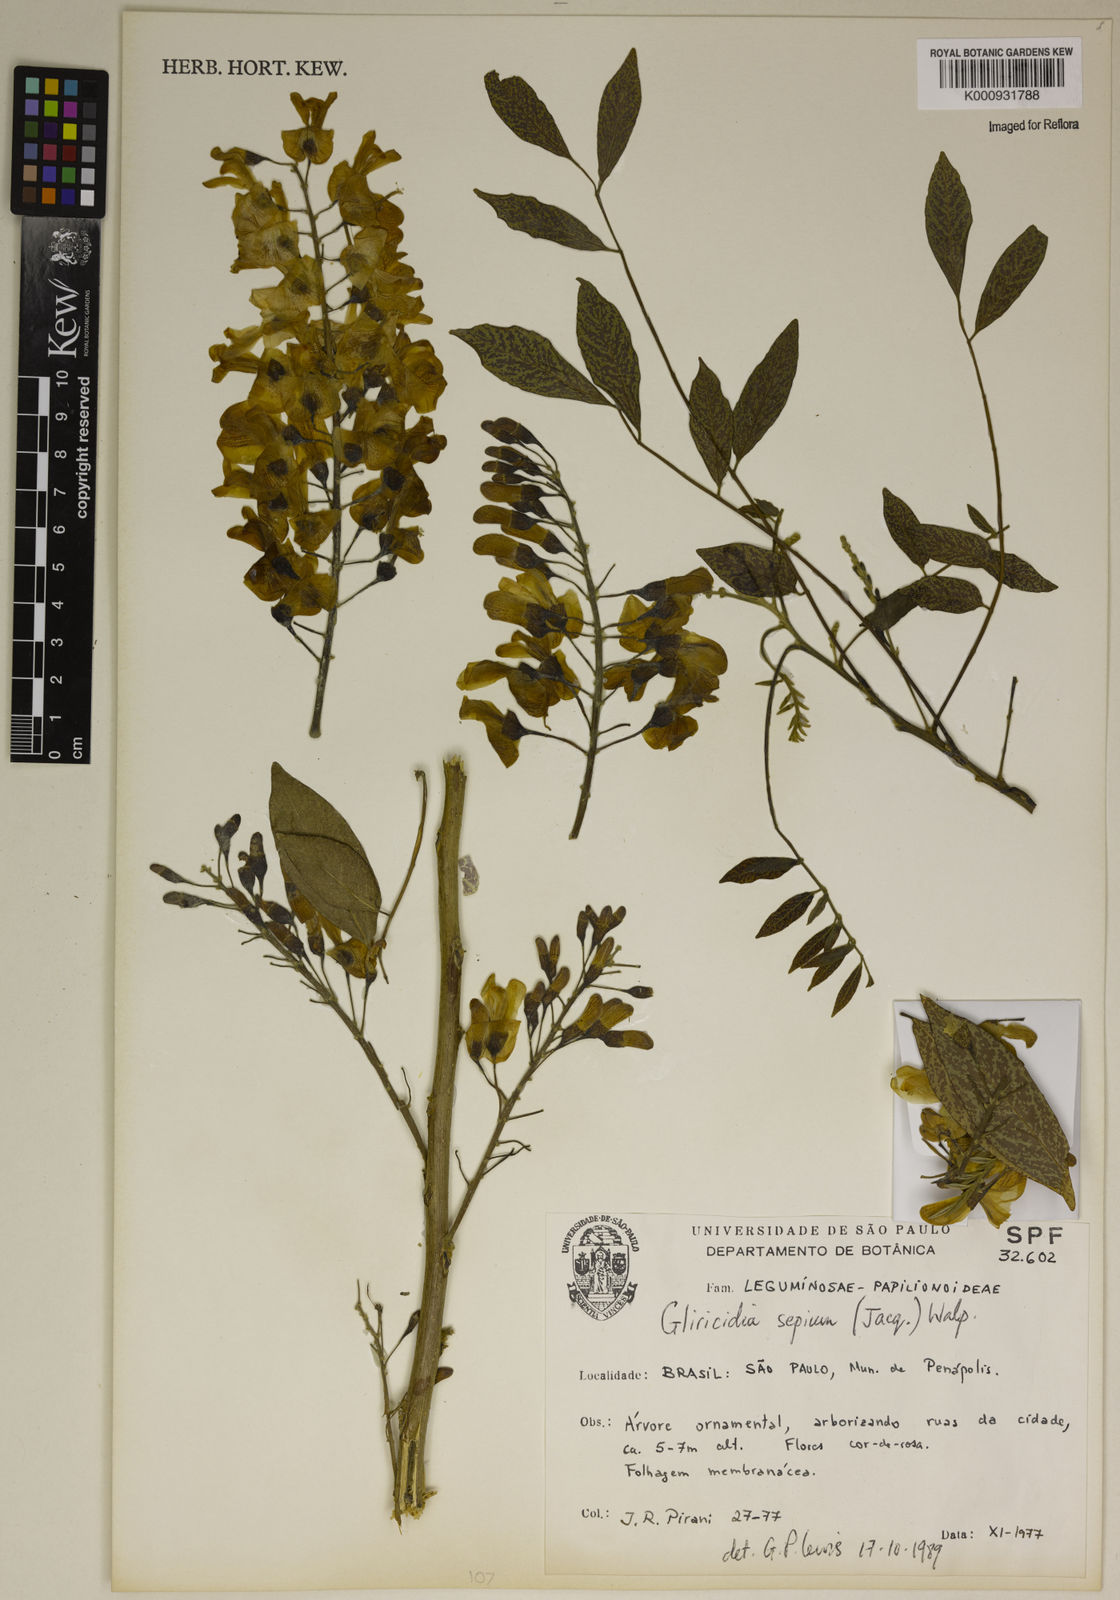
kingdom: Plantae
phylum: Tracheophyta
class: Magnoliopsida
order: Fabales
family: Fabaceae
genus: Gliricidia
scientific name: Gliricidia
